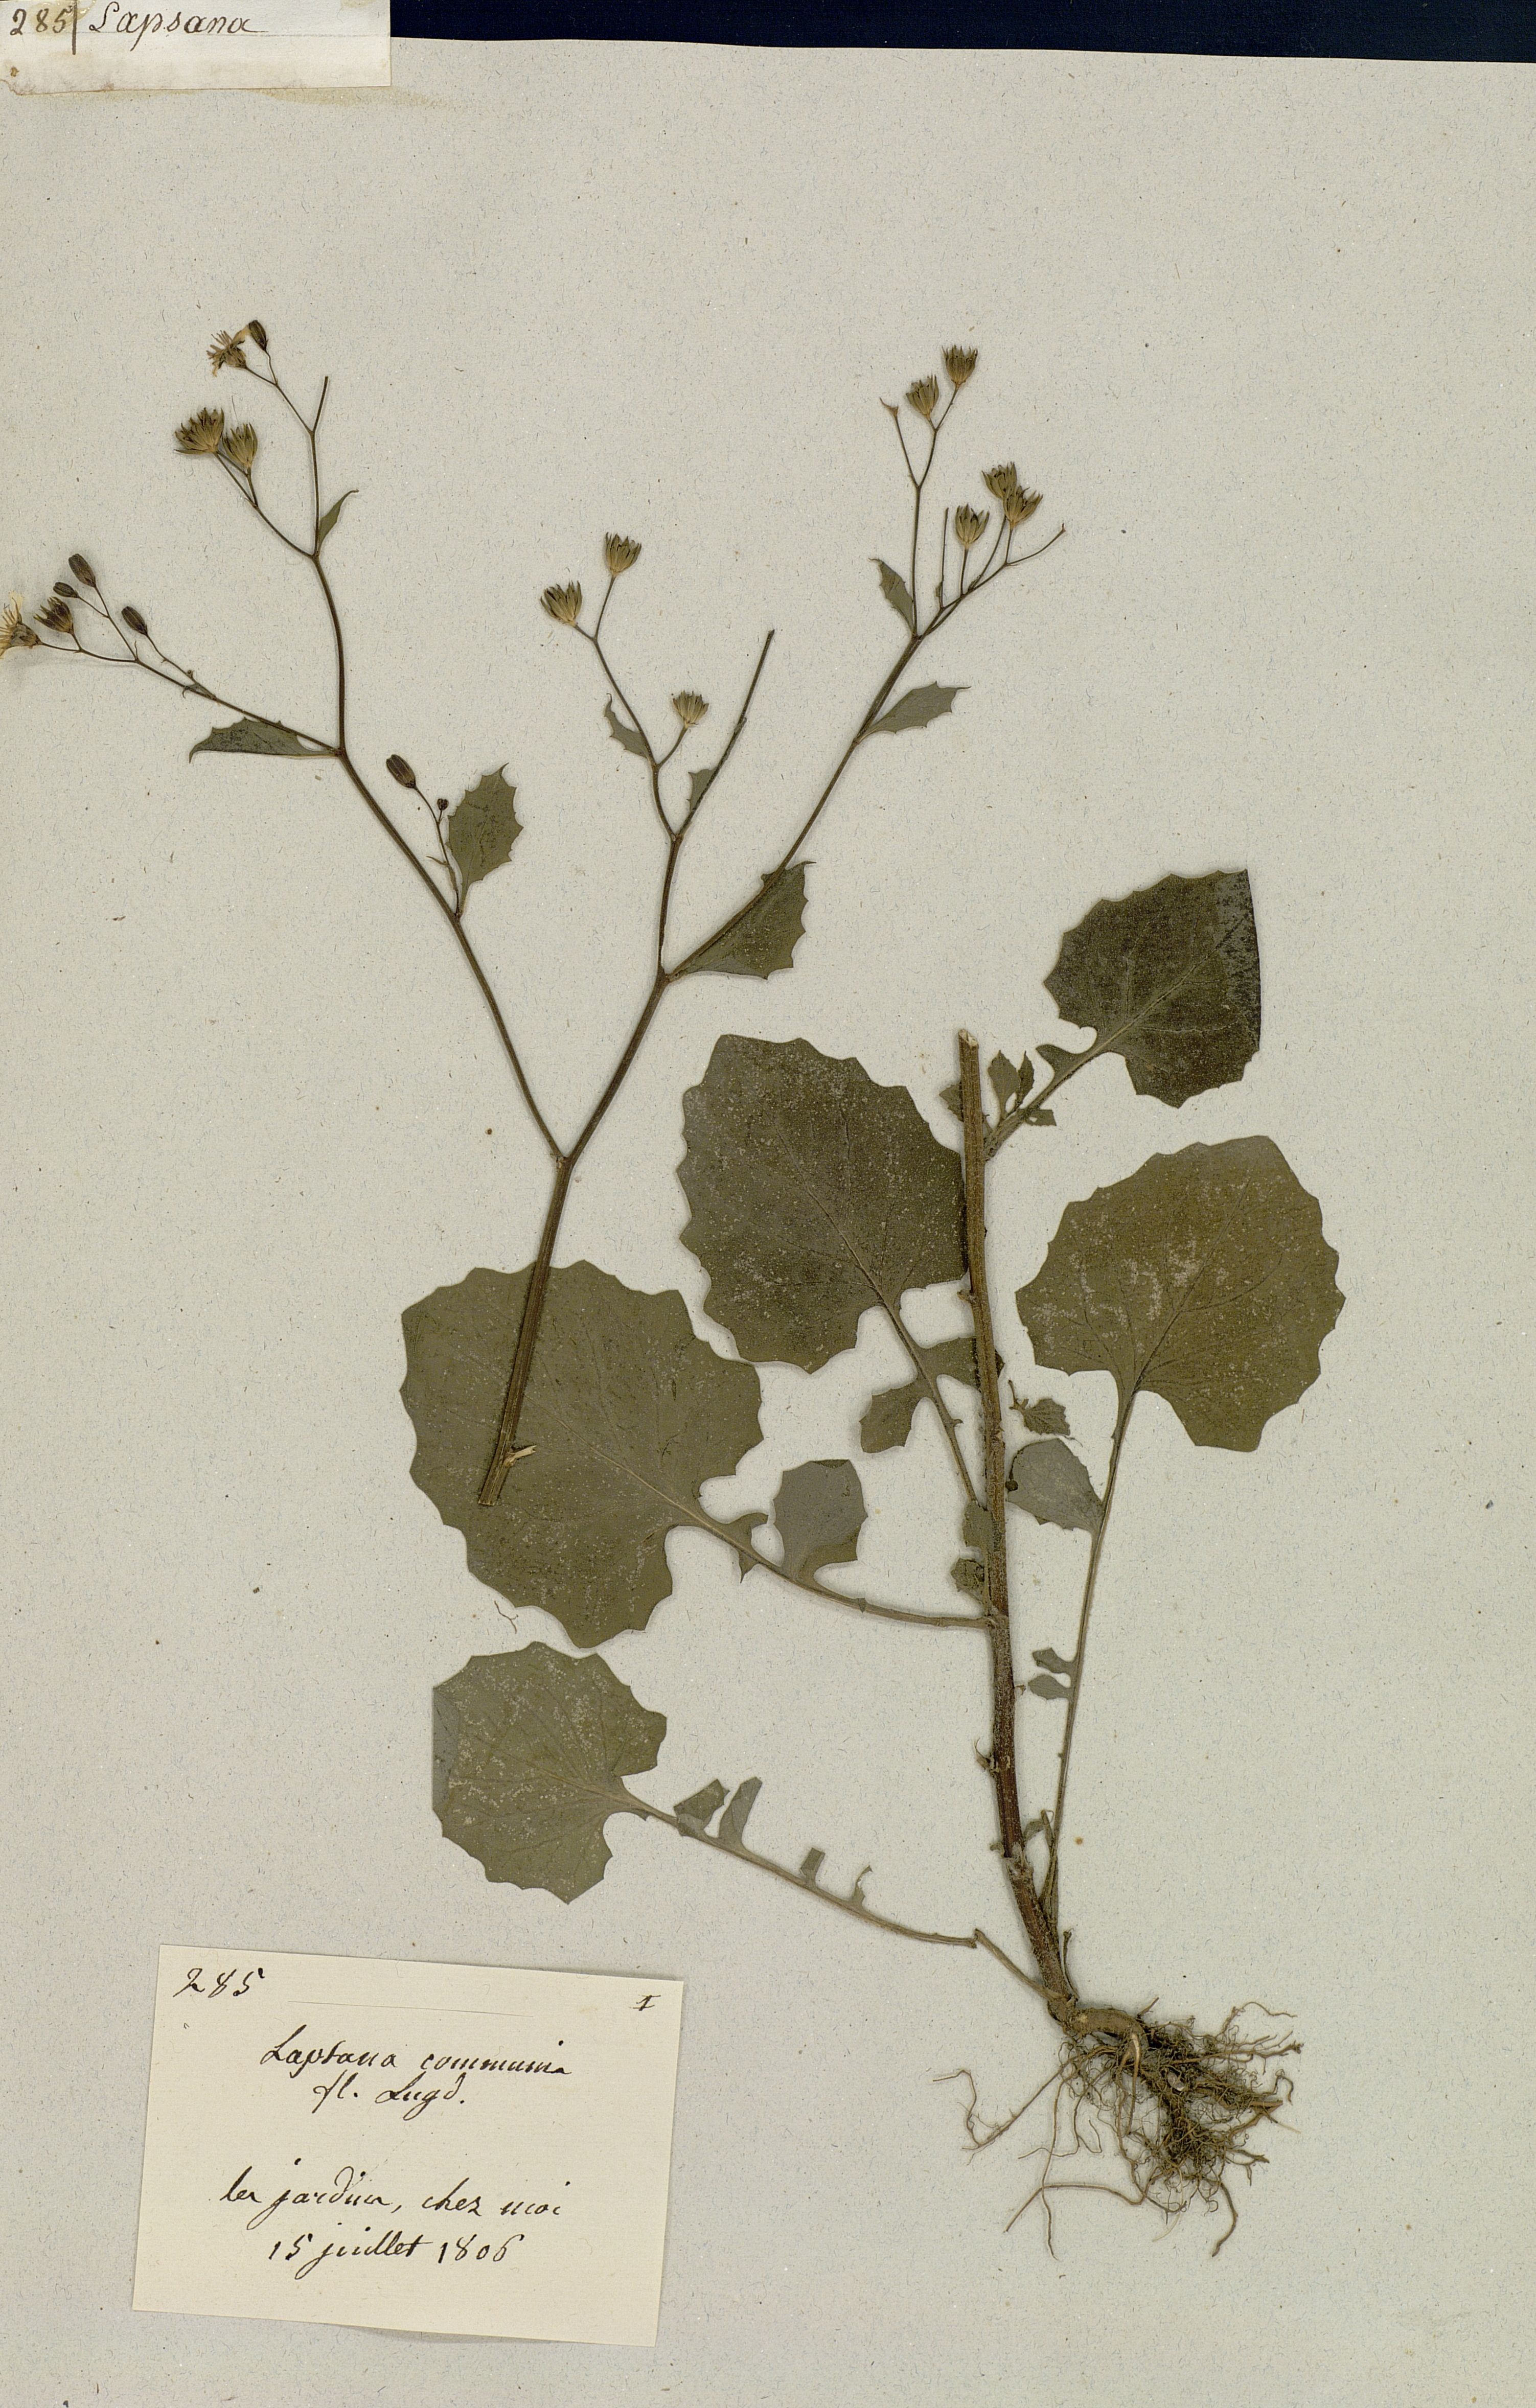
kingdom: Plantae
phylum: Tracheophyta
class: Magnoliopsida
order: Asterales
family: Asteraceae
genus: Lapsana
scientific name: Lapsana communis
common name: Nipplewort
